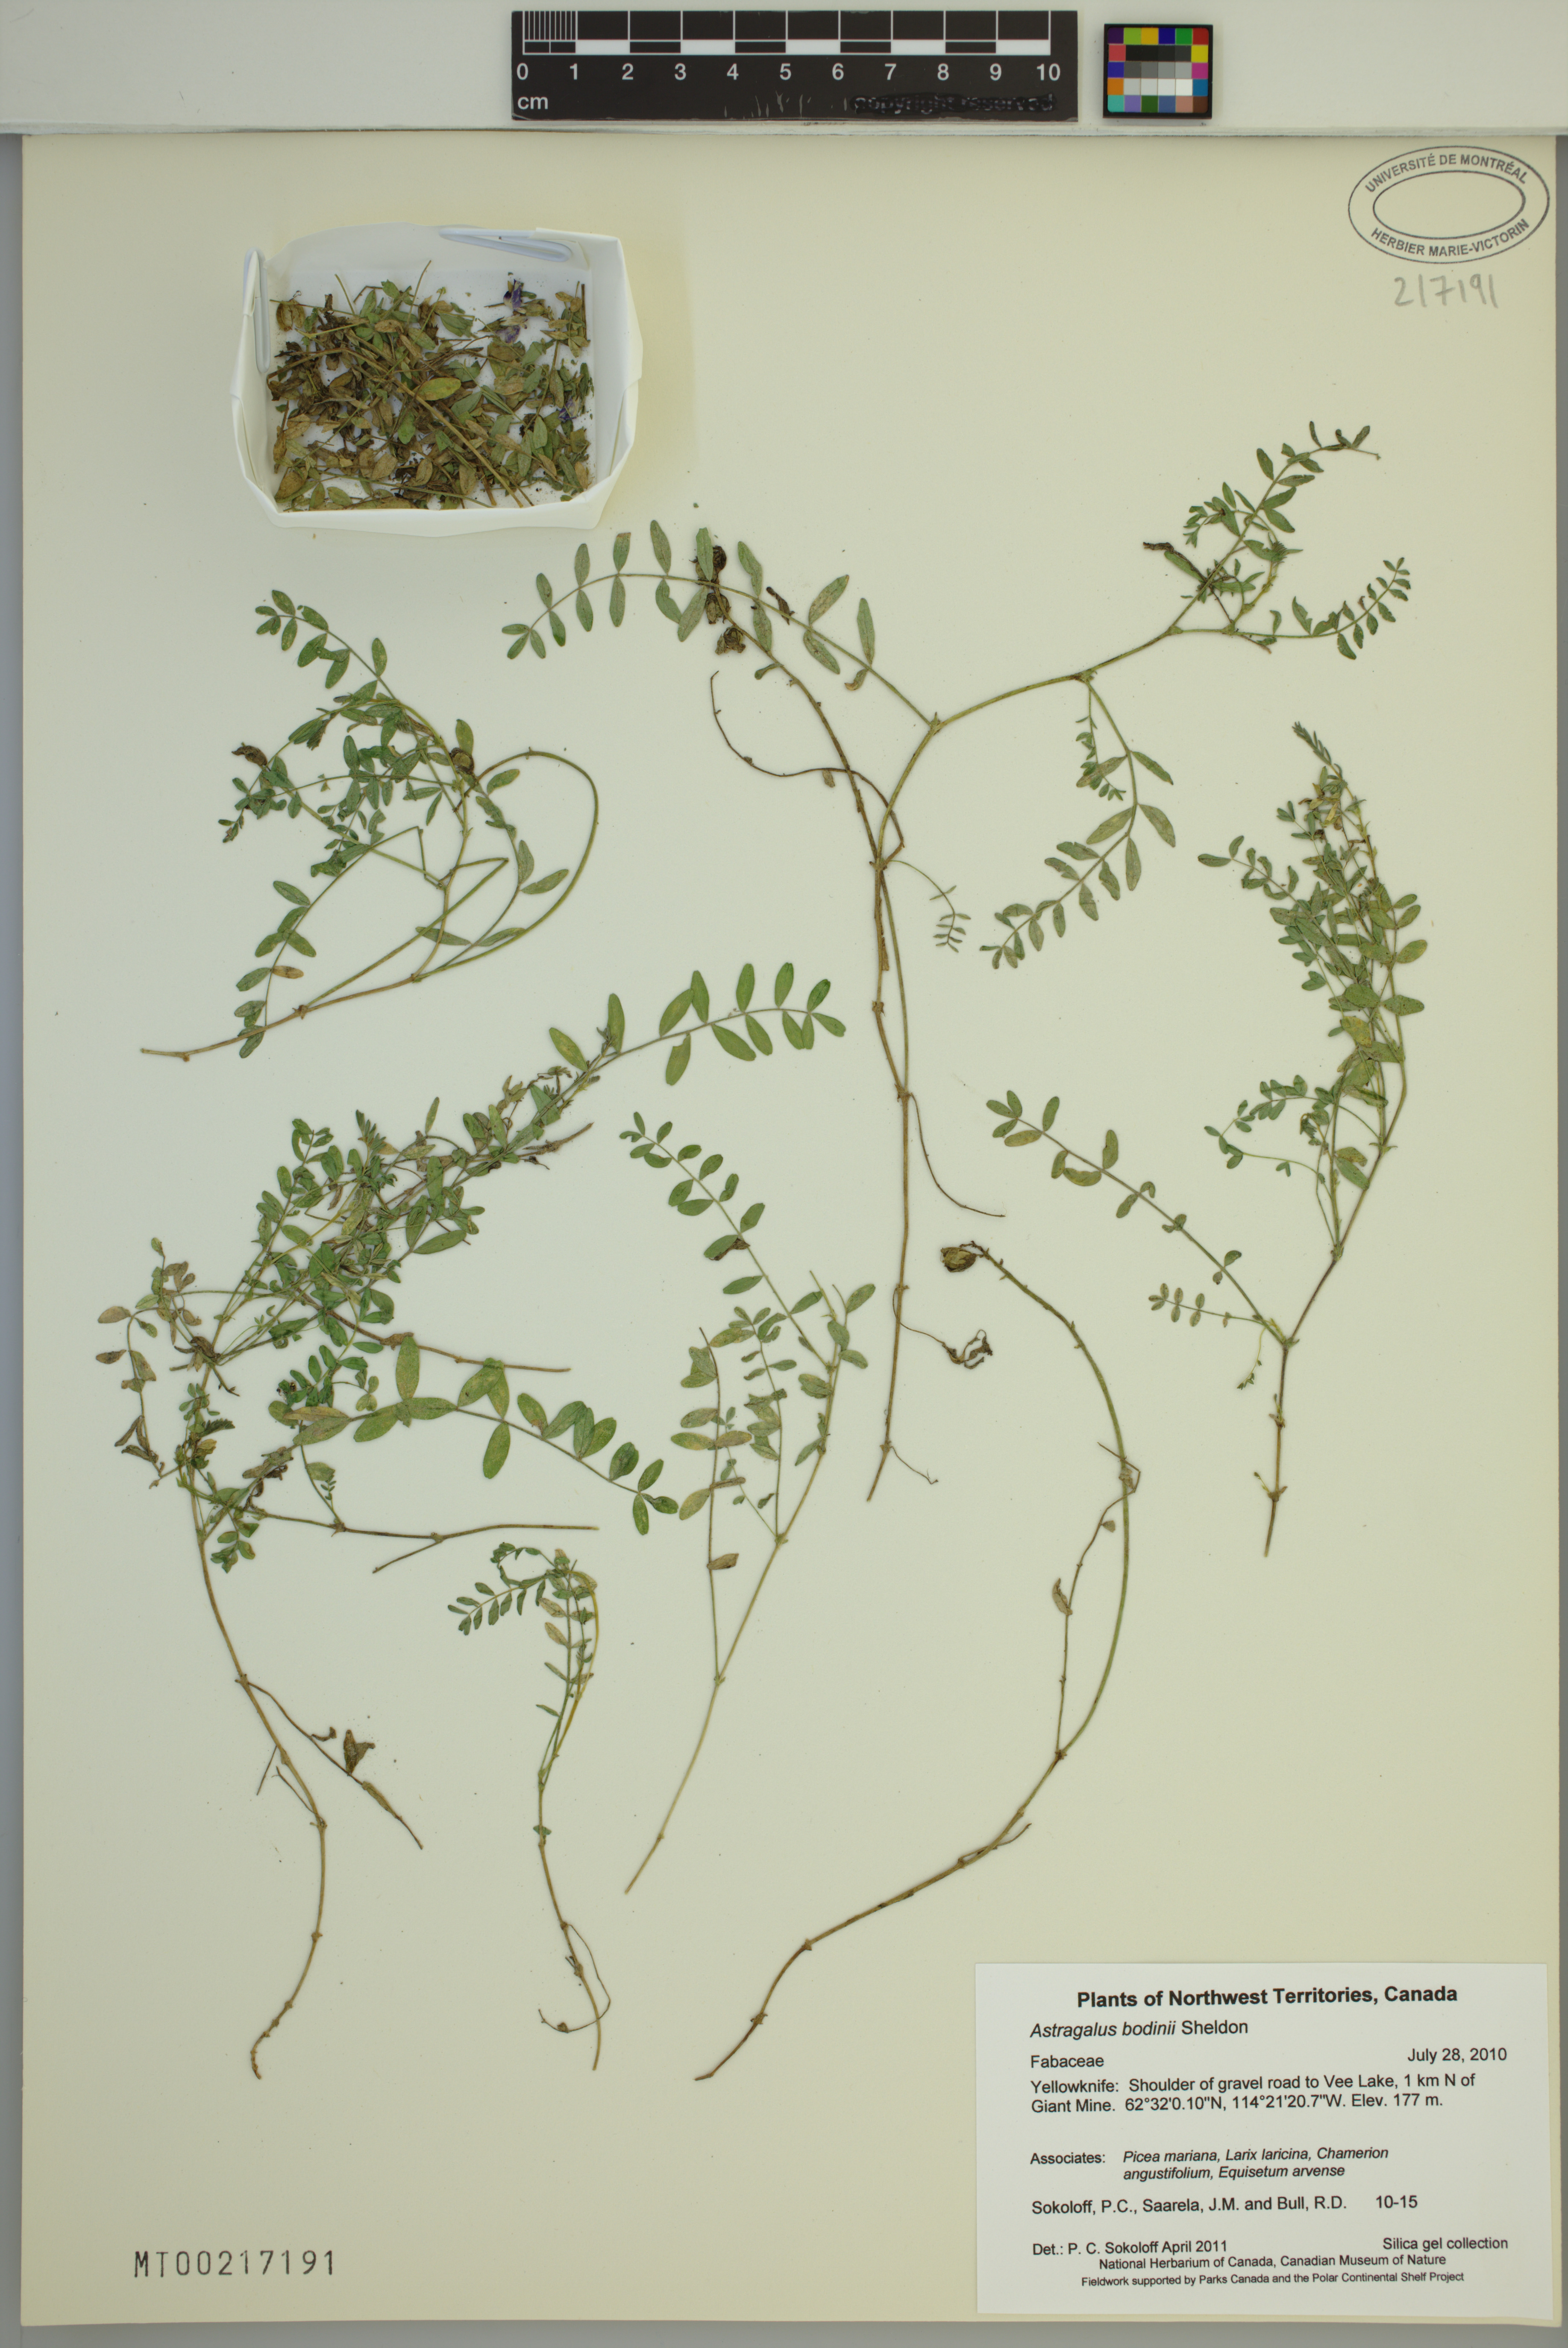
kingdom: Plantae
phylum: Tracheophyta
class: Magnoliopsida
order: Fabales
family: Fabaceae
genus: Astragalus
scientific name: Astragalus bodinii
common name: Bodin's milk-vetch
